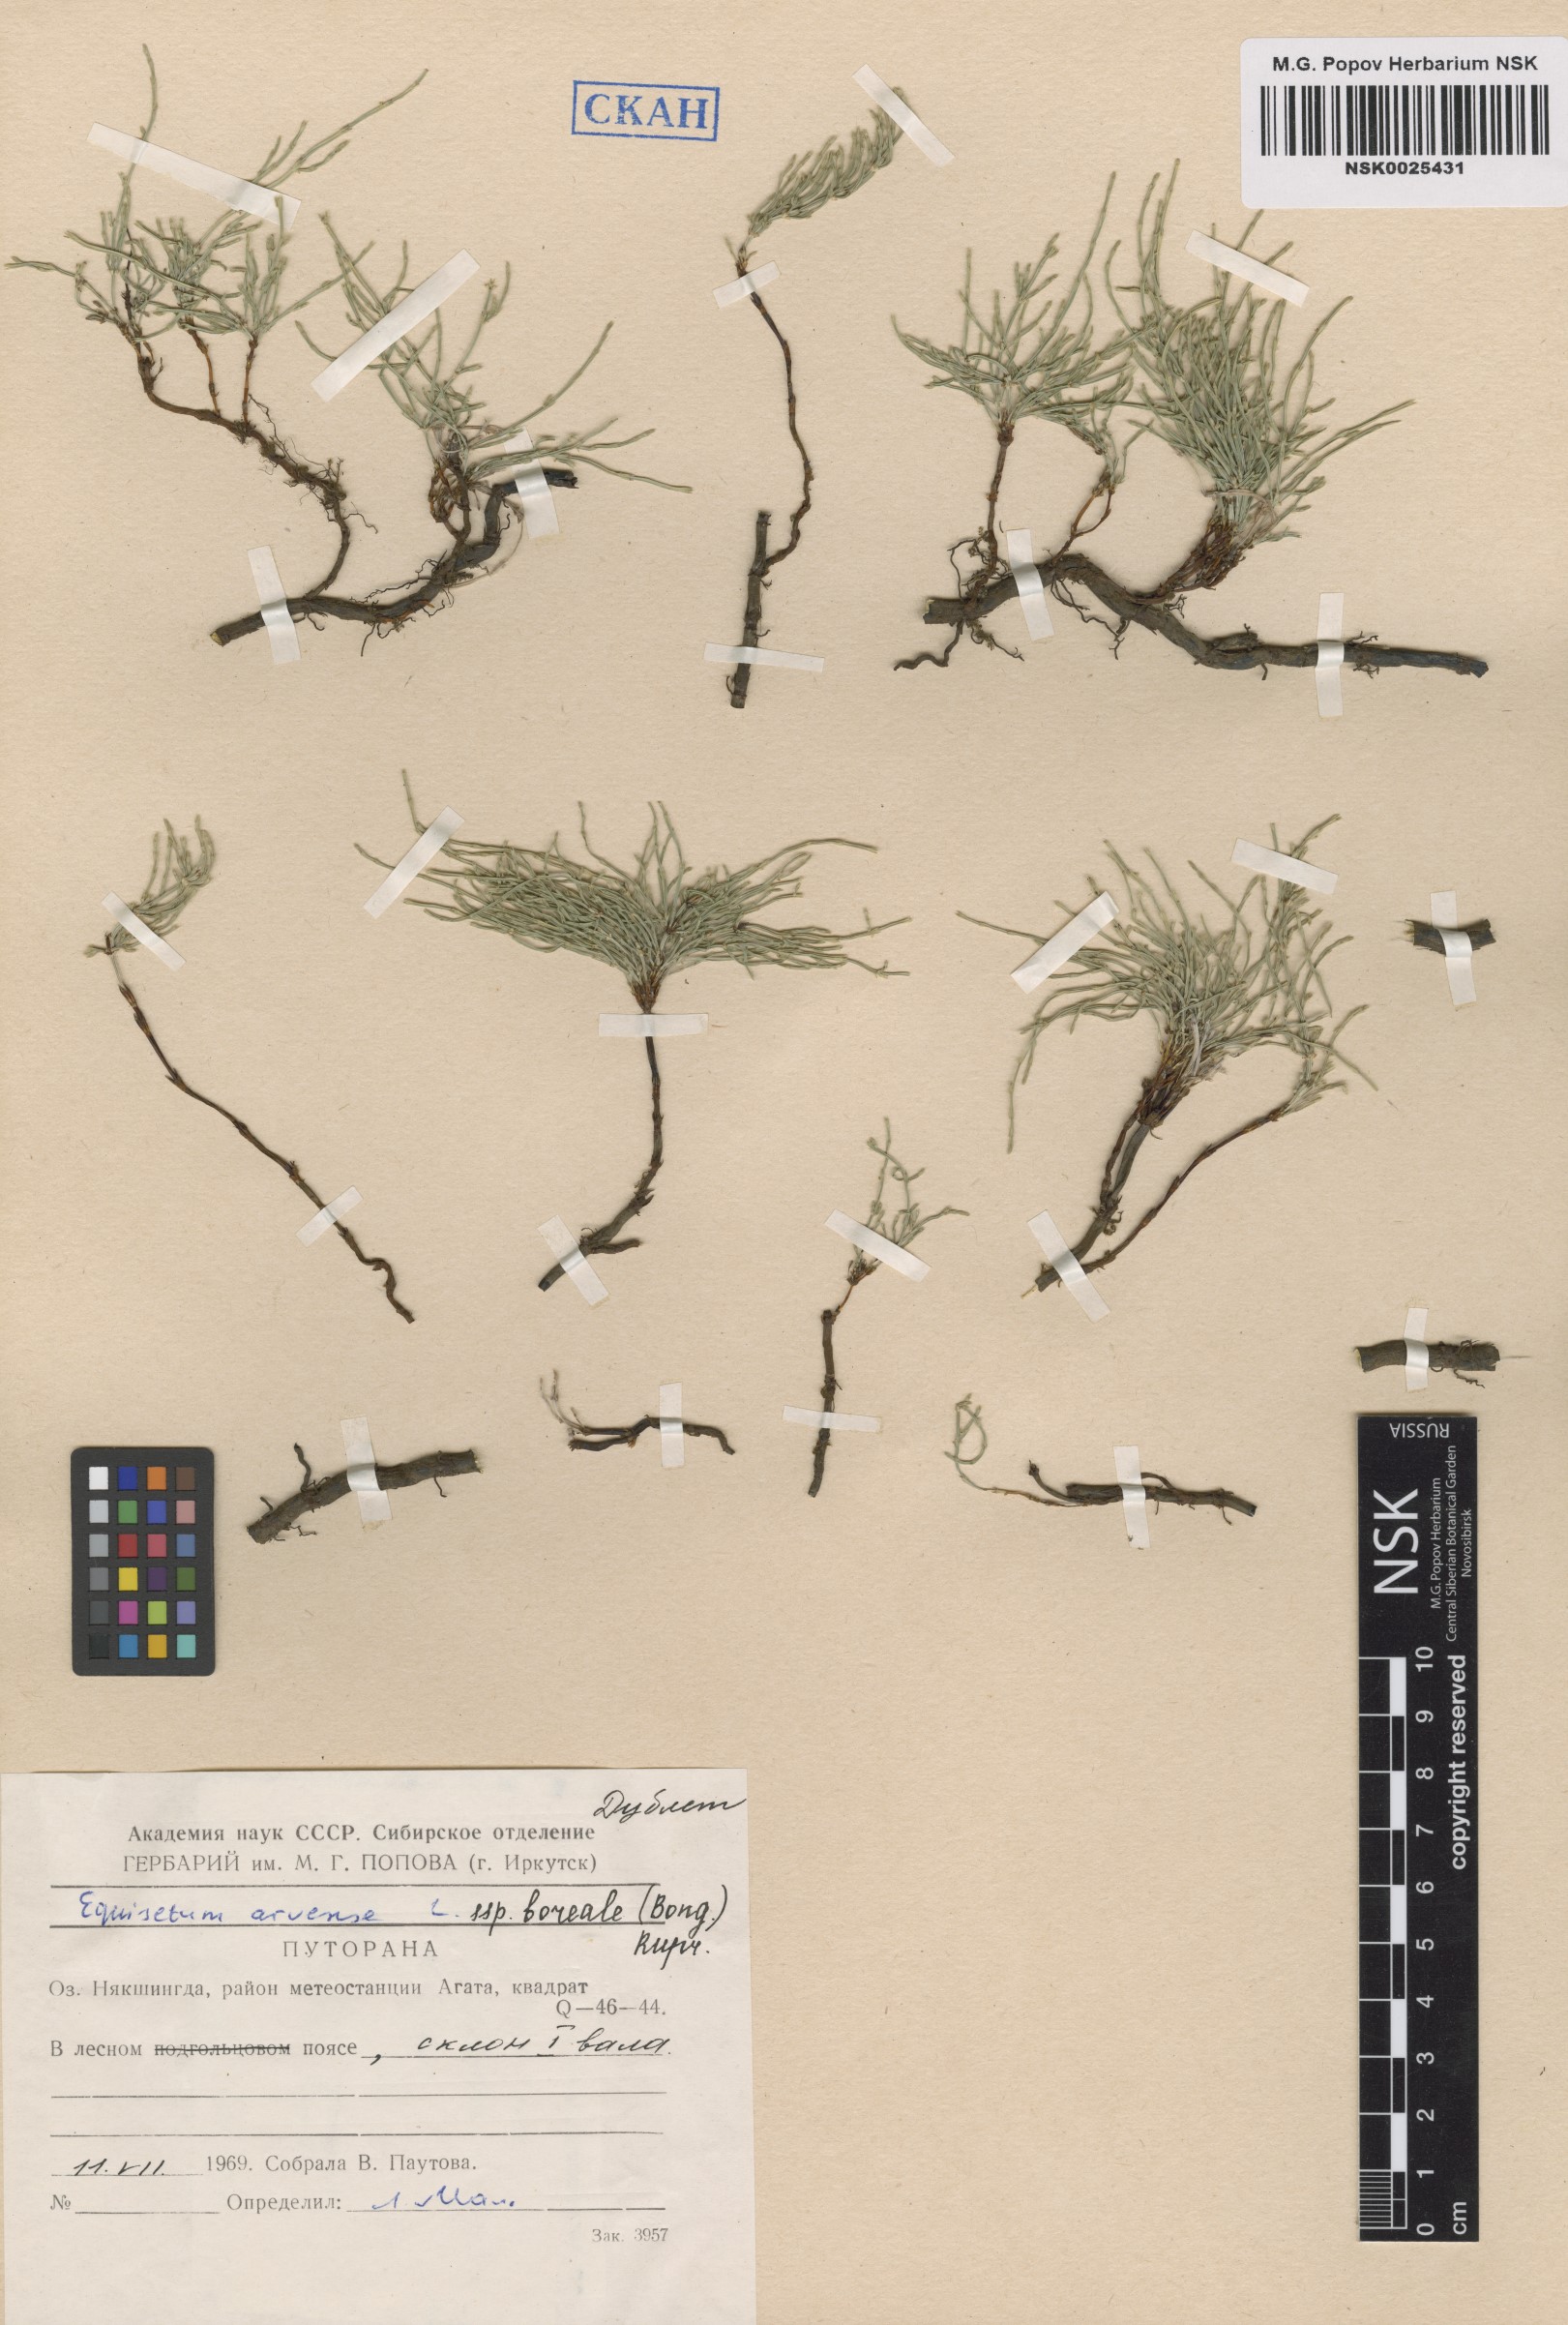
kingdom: Plantae
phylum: Tracheophyta
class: Polypodiopsida
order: Equisetales
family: Equisetaceae
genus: Equisetum
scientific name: Equisetum arvense
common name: Field horsetail
